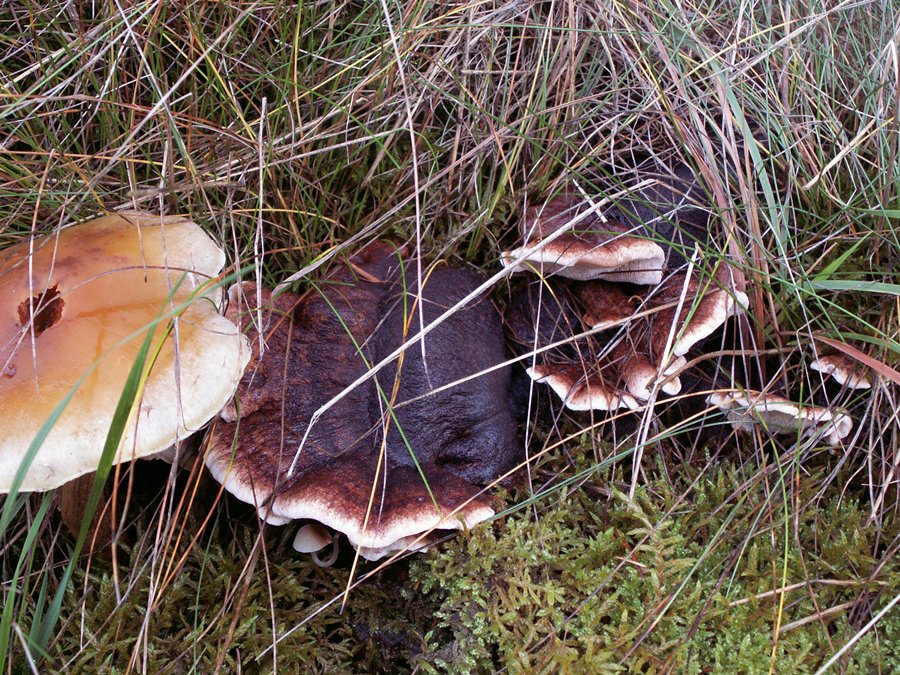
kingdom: Fungi
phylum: Basidiomycota
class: Agaricomycetes
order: Polyporales
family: Ischnodermataceae
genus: Ischnoderma
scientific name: Ischnoderma benzoinum
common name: gran-tjæreporesvamp
